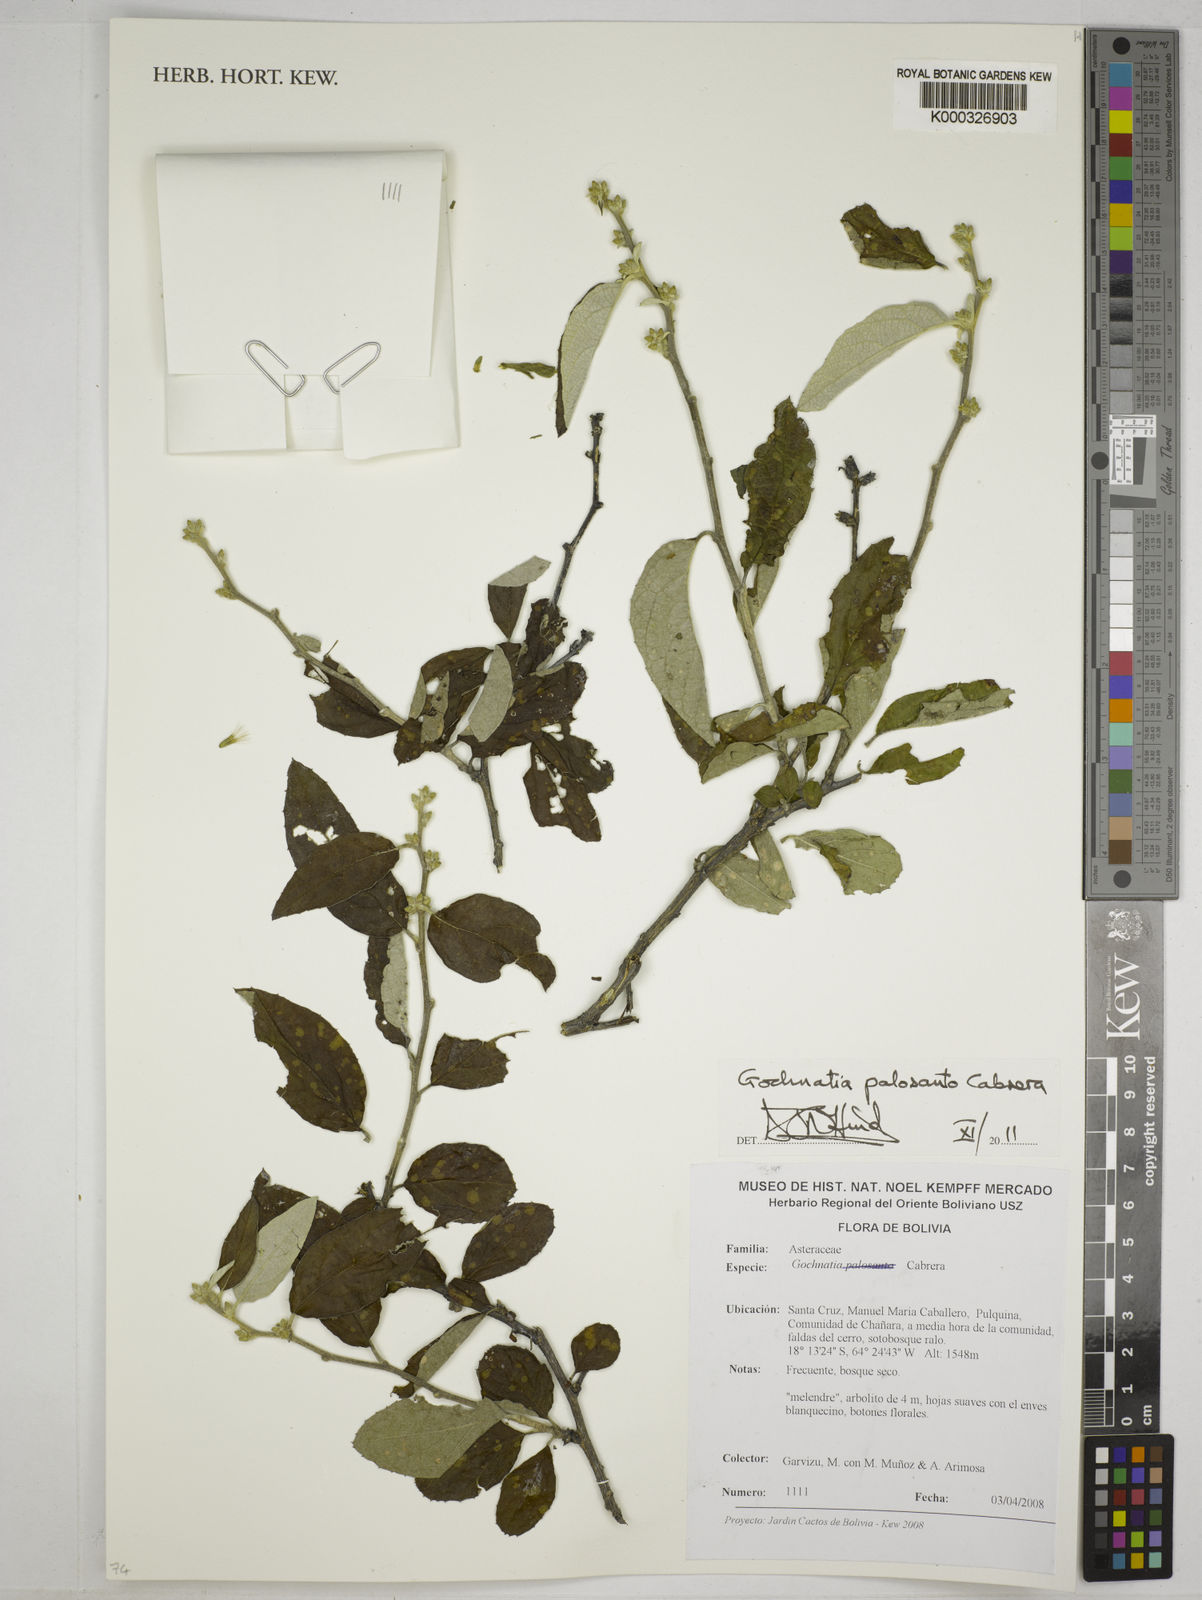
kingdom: Plantae
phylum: Tracheophyta
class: Magnoliopsida
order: Asterales
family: Asteraceae
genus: Gochnatia
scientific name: Gochnatia palosanto
